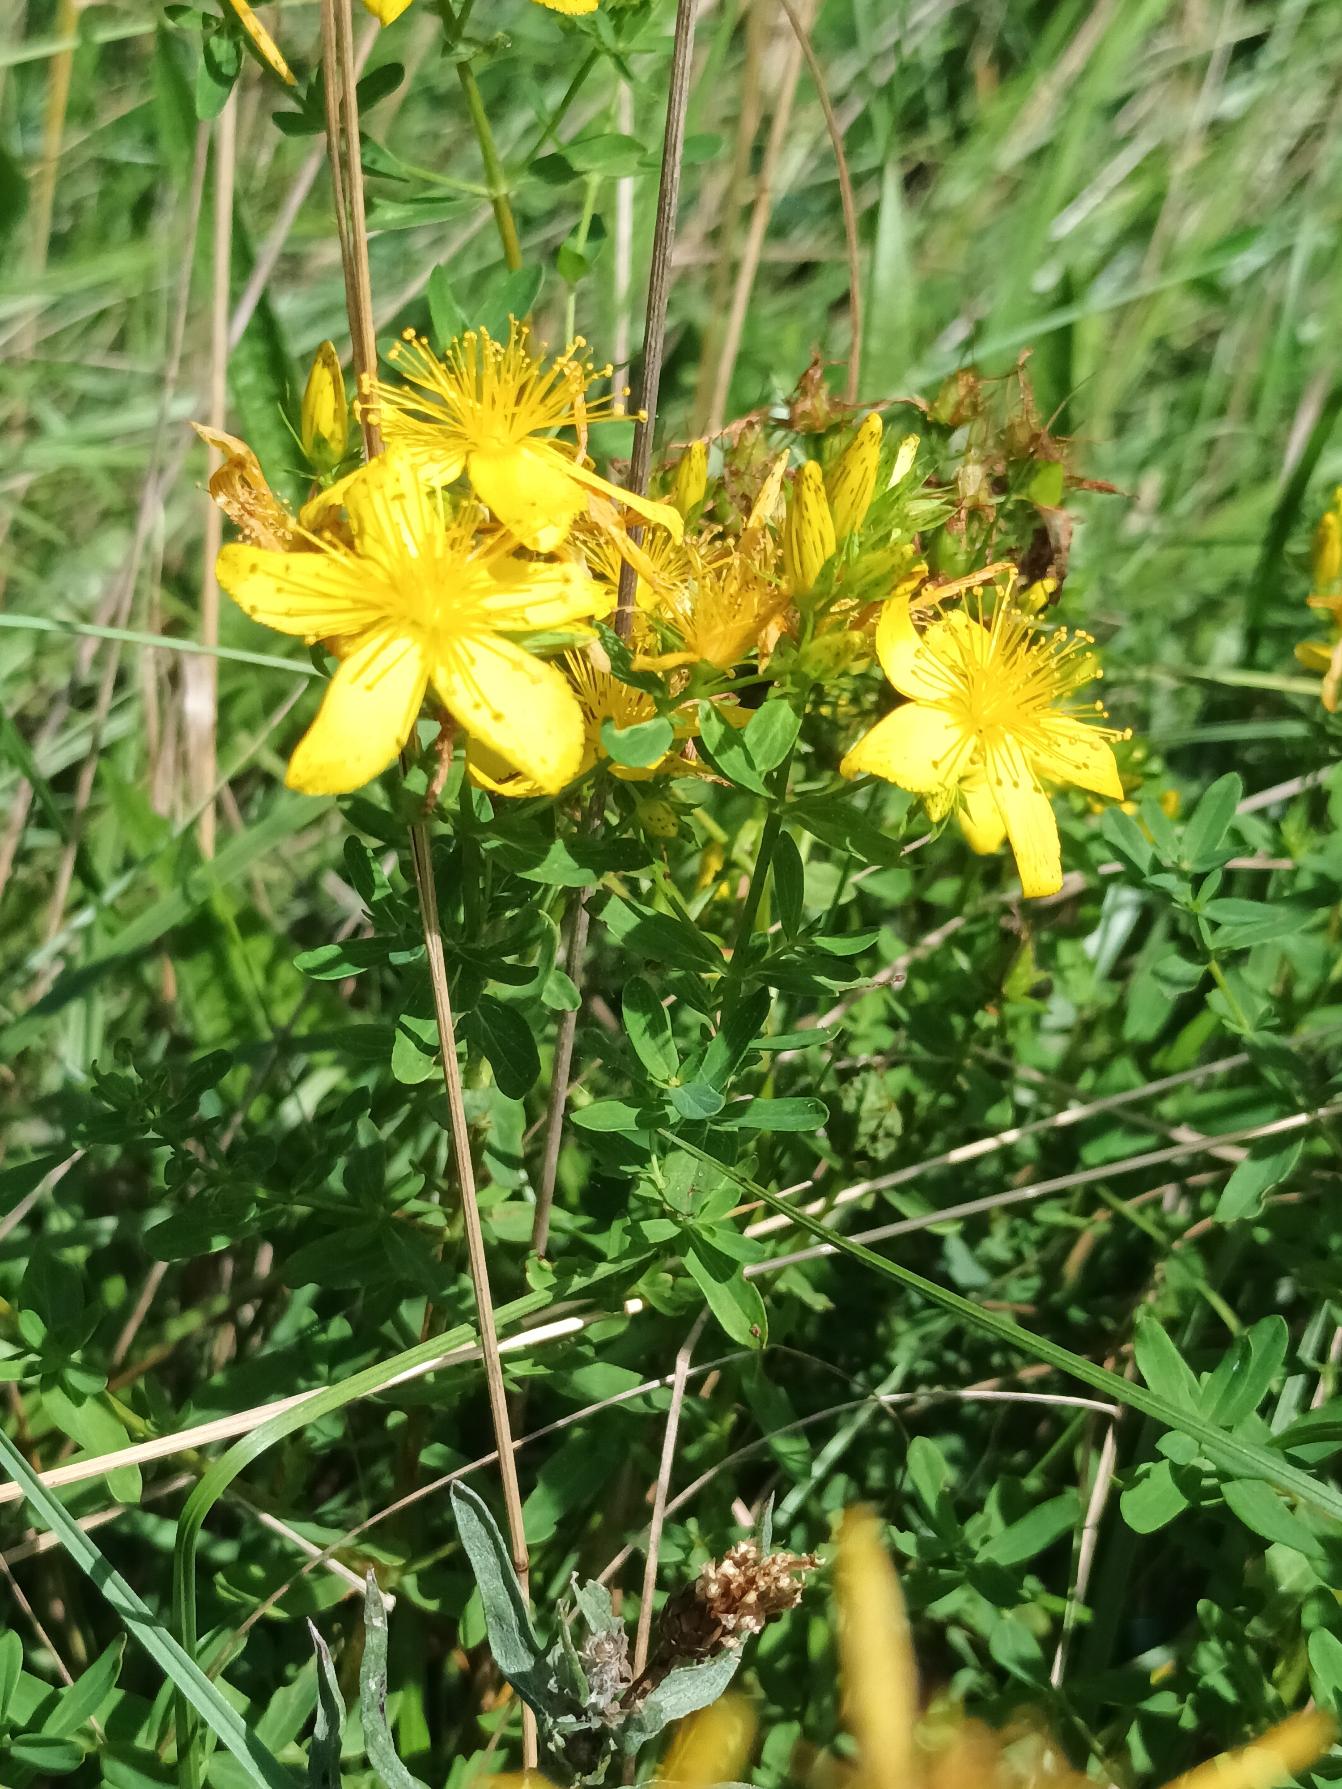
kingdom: Plantae
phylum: Tracheophyta
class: Magnoliopsida
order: Malpighiales
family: Hypericaceae
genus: Hypericum
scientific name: Hypericum perforatum
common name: Prikbladet perikon
